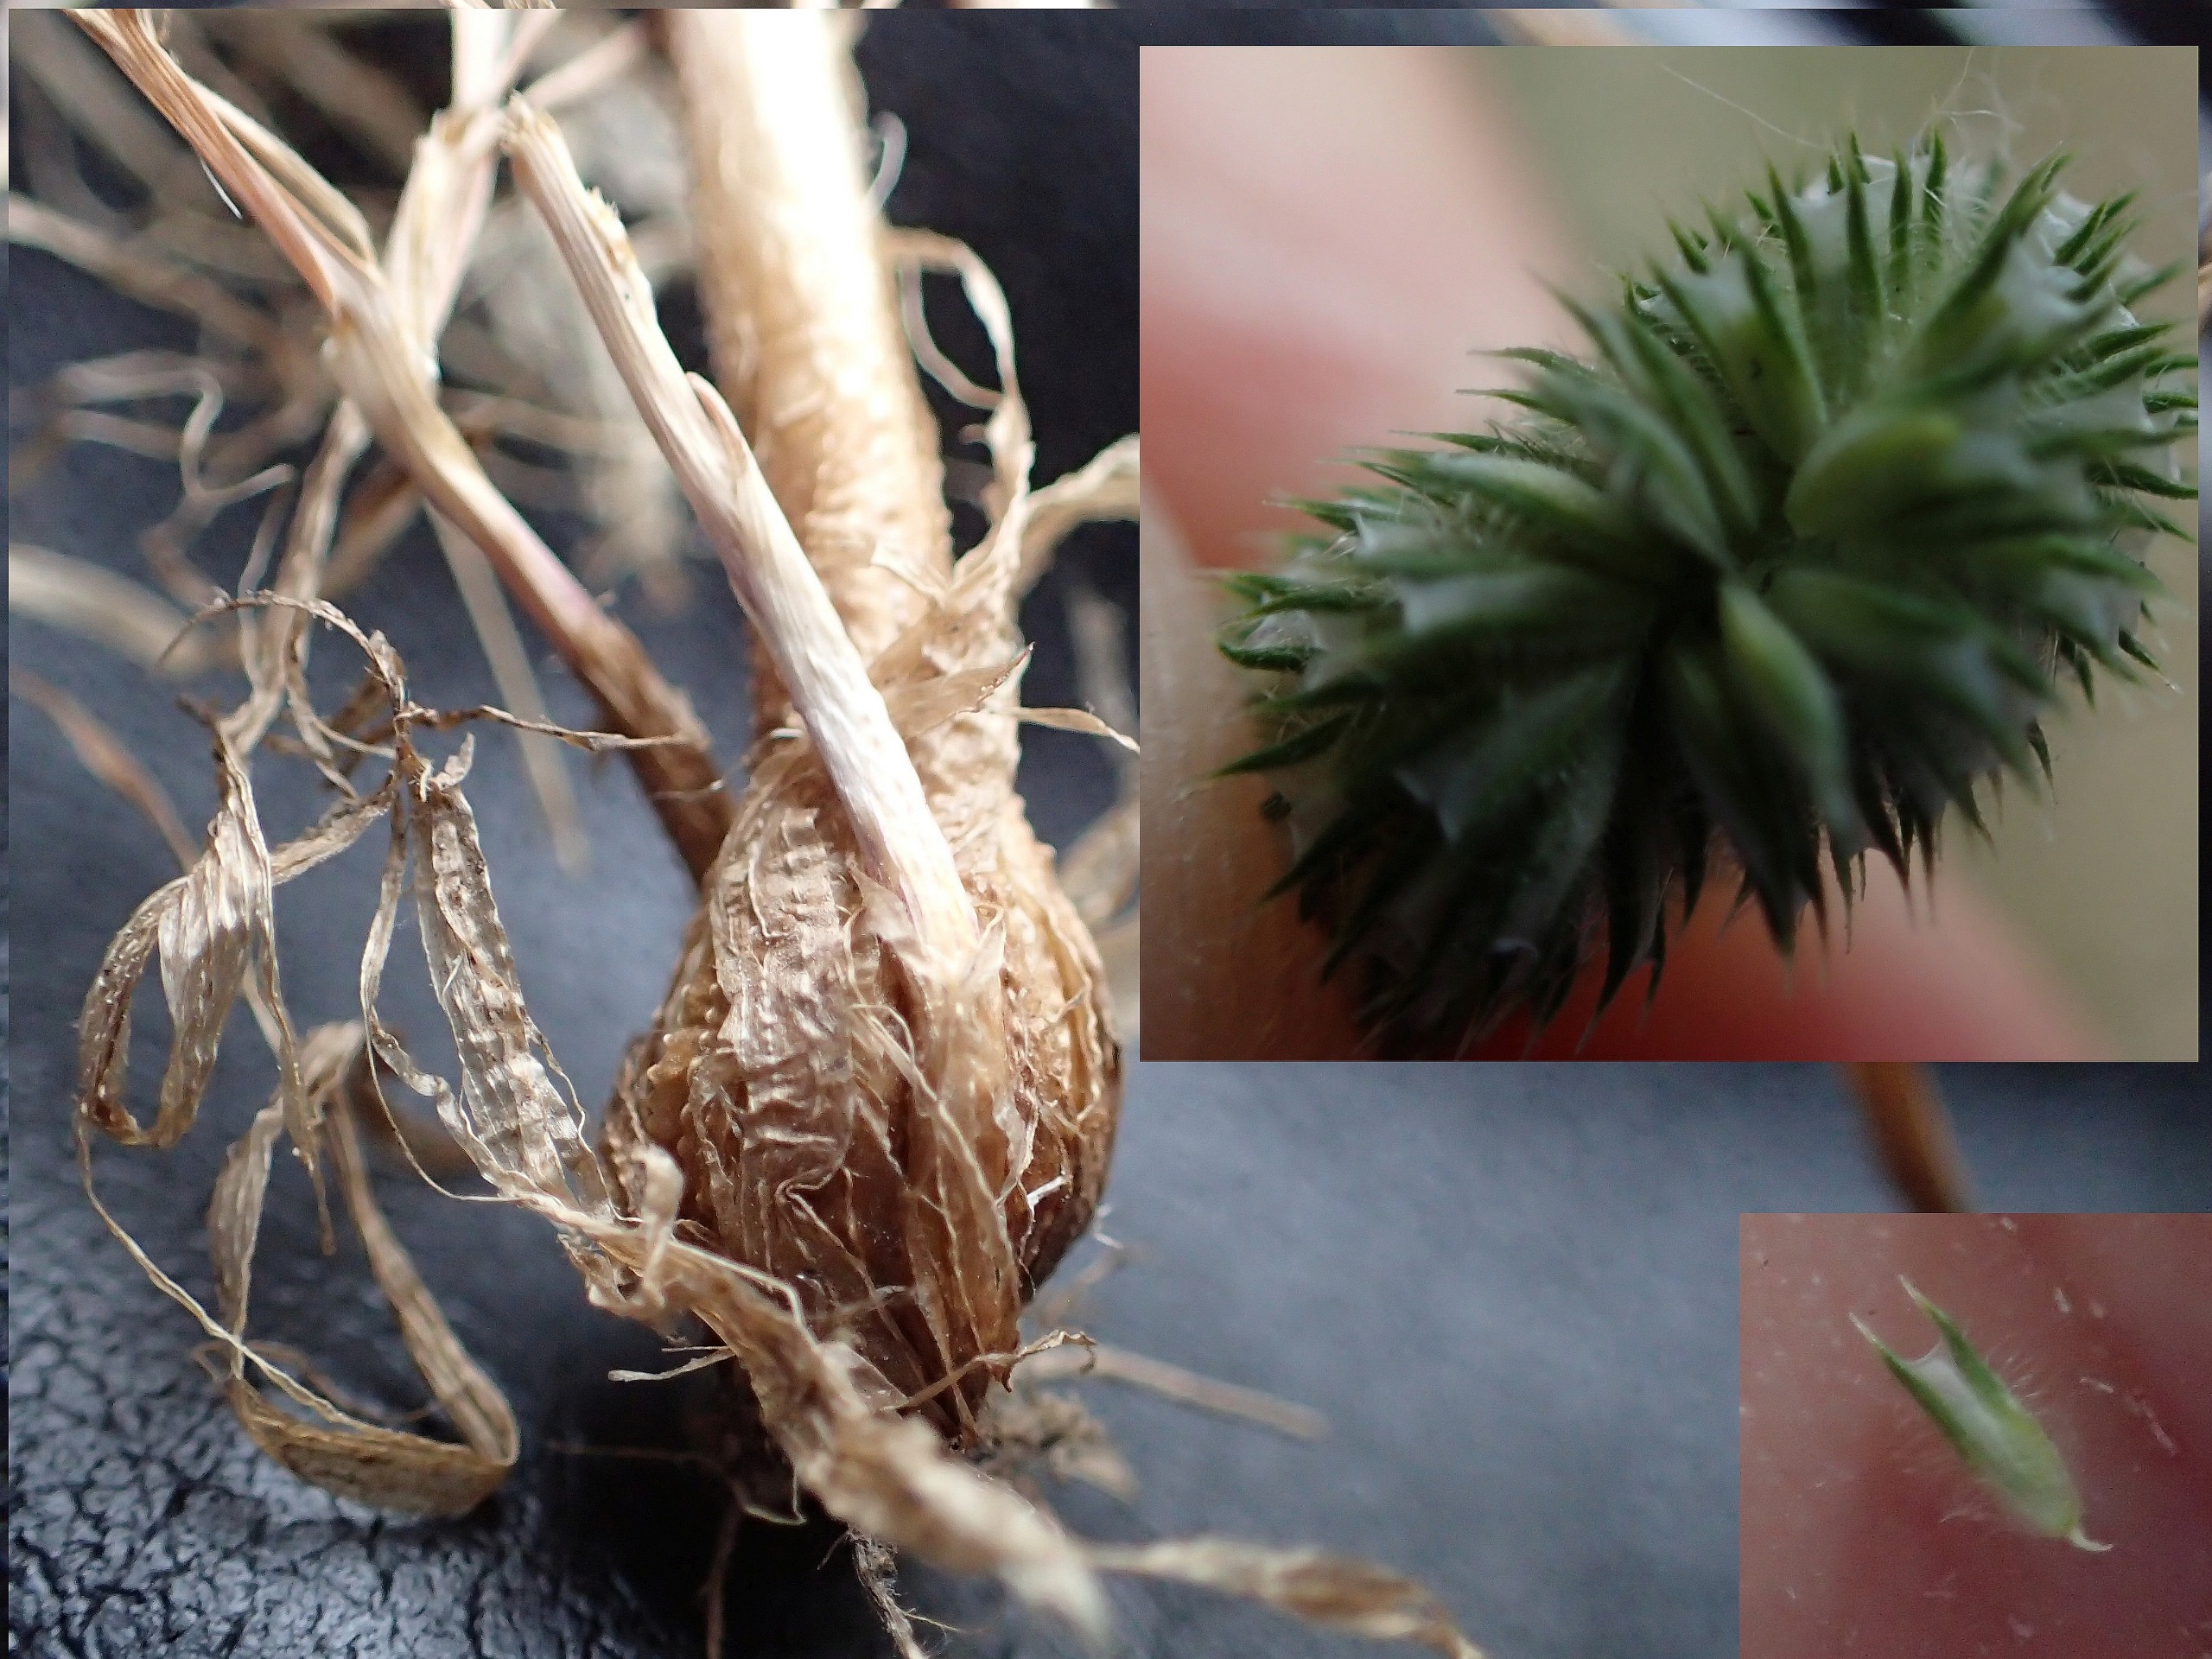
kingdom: Plantae
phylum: Tracheophyta
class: Liliopsida
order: Poales
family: Poaceae
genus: Phleum
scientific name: Phleum pratense
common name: Knold-rottehale
